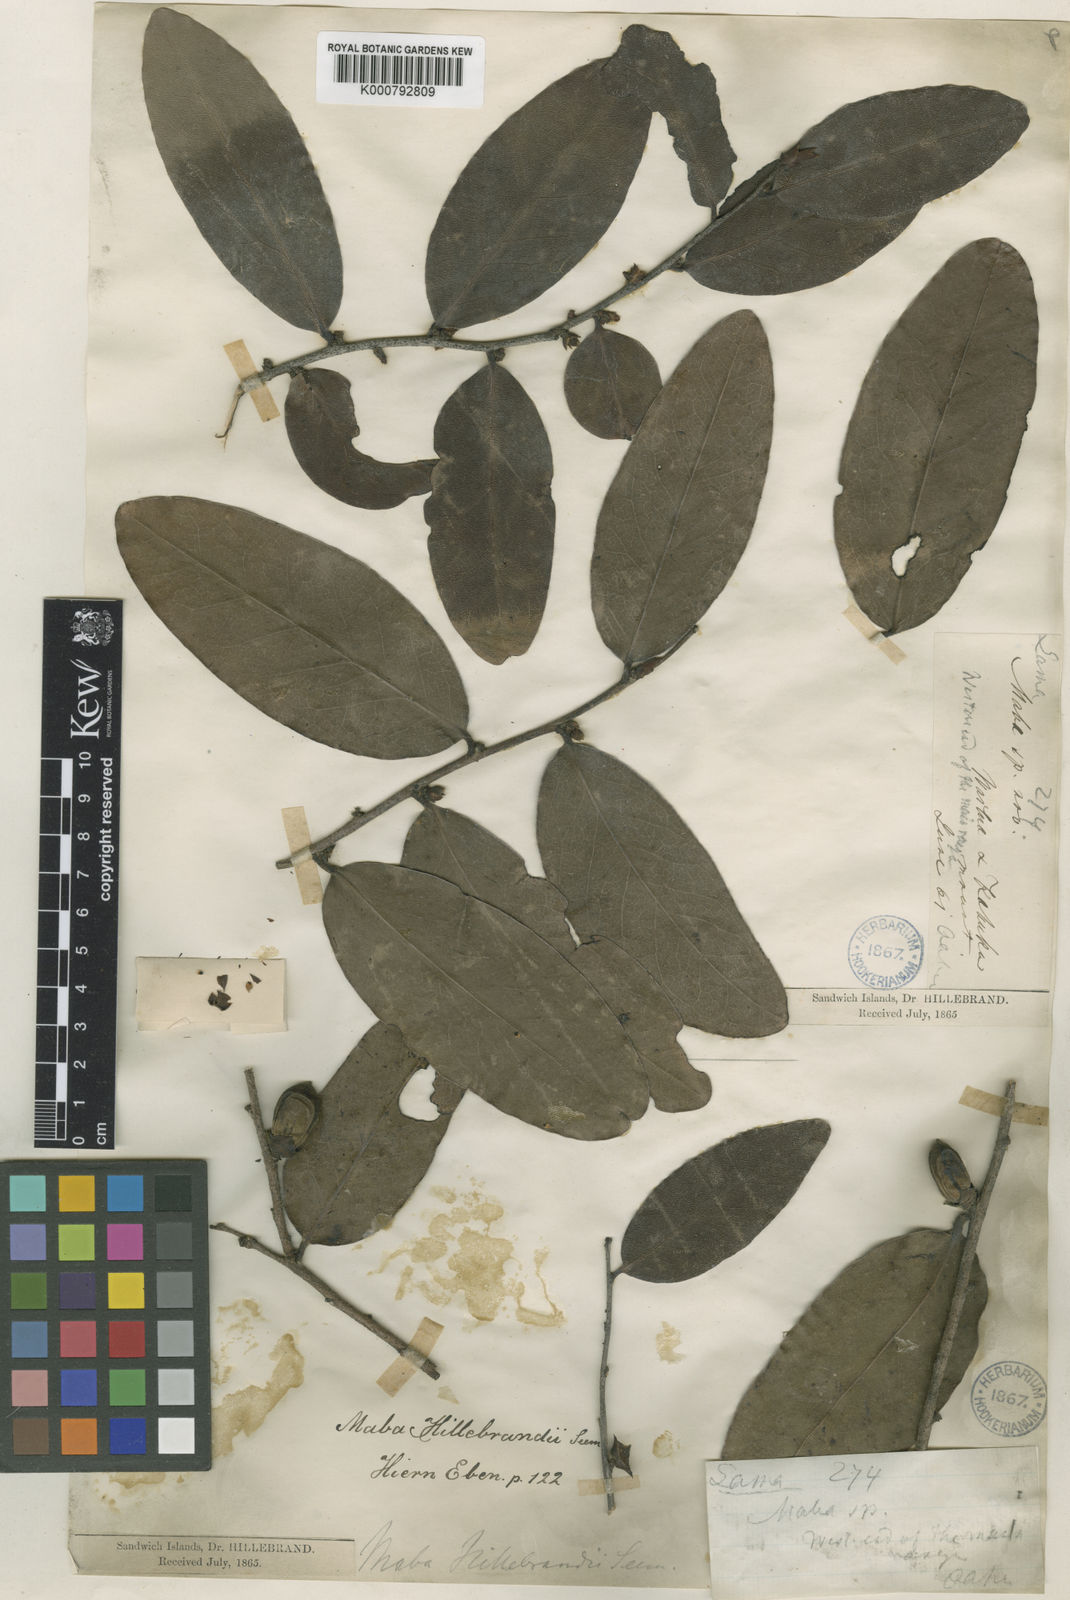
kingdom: Plantae
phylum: Tracheophyta
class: Magnoliopsida
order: Ericales
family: Ebenaceae
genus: Diospyros
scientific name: Diospyros ferrea
